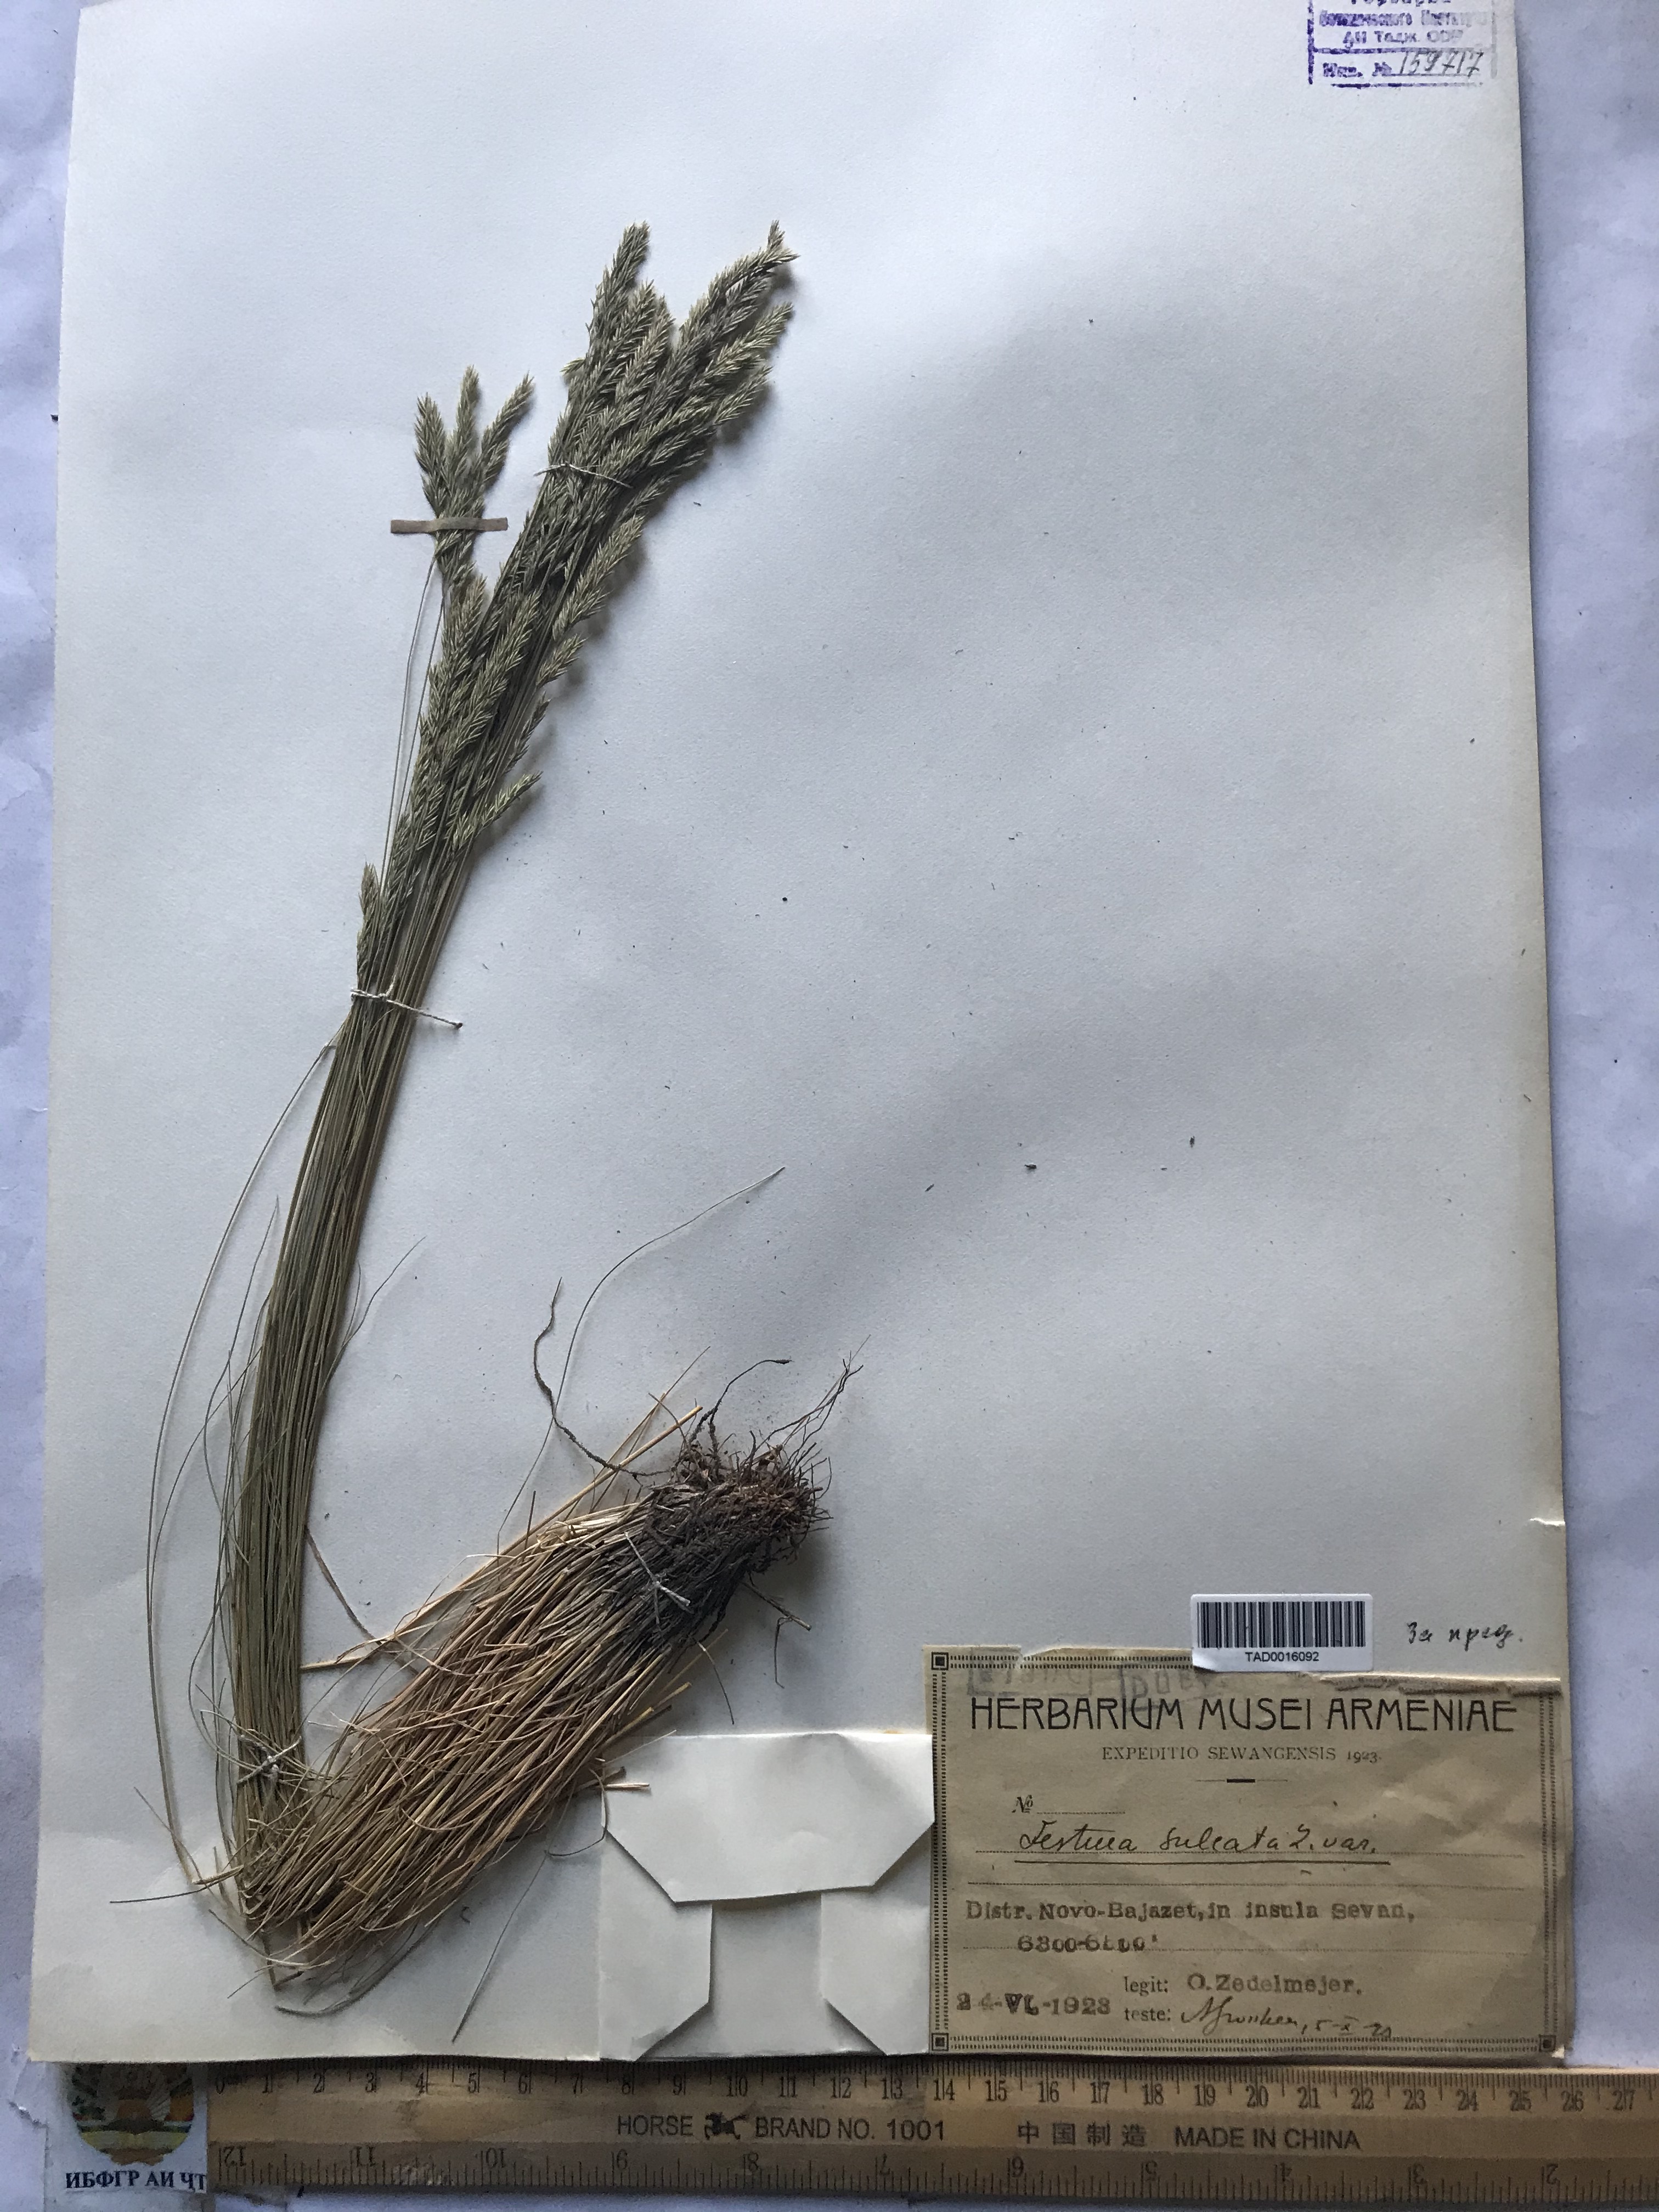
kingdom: Plantae
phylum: Tracheophyta
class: Liliopsida
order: Poales
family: Poaceae
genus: Festuca
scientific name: Festuca sulcata
